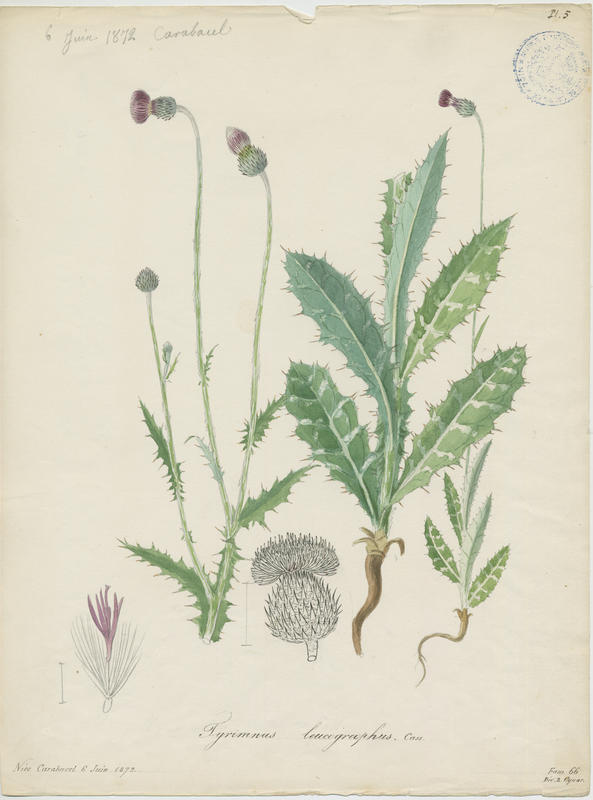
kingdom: Plantae
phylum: Tracheophyta
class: Magnoliopsida
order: Asterales
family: Asteraceae
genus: Tyrimnus
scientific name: Tyrimnus leucographus
